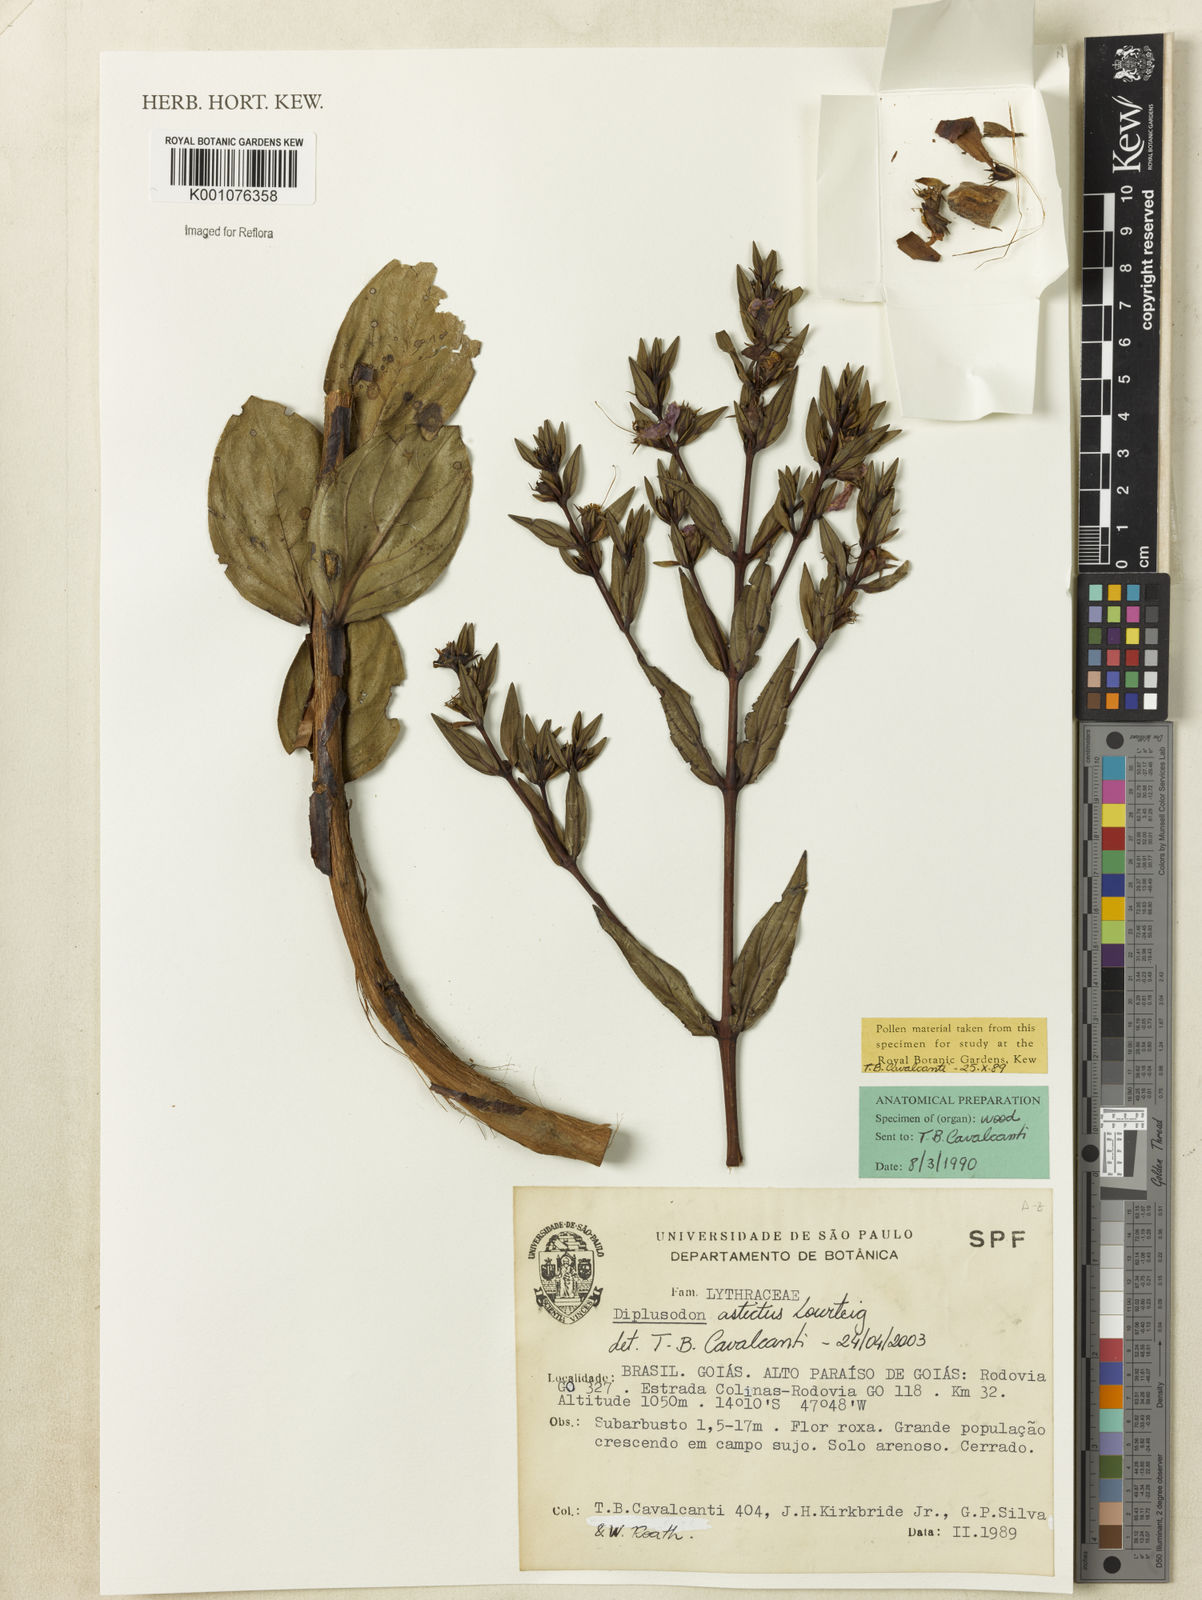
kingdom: Plantae
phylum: Tracheophyta
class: Magnoliopsida
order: Myrtales
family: Lythraceae
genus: Diplusodon
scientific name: Diplusodon astictus
